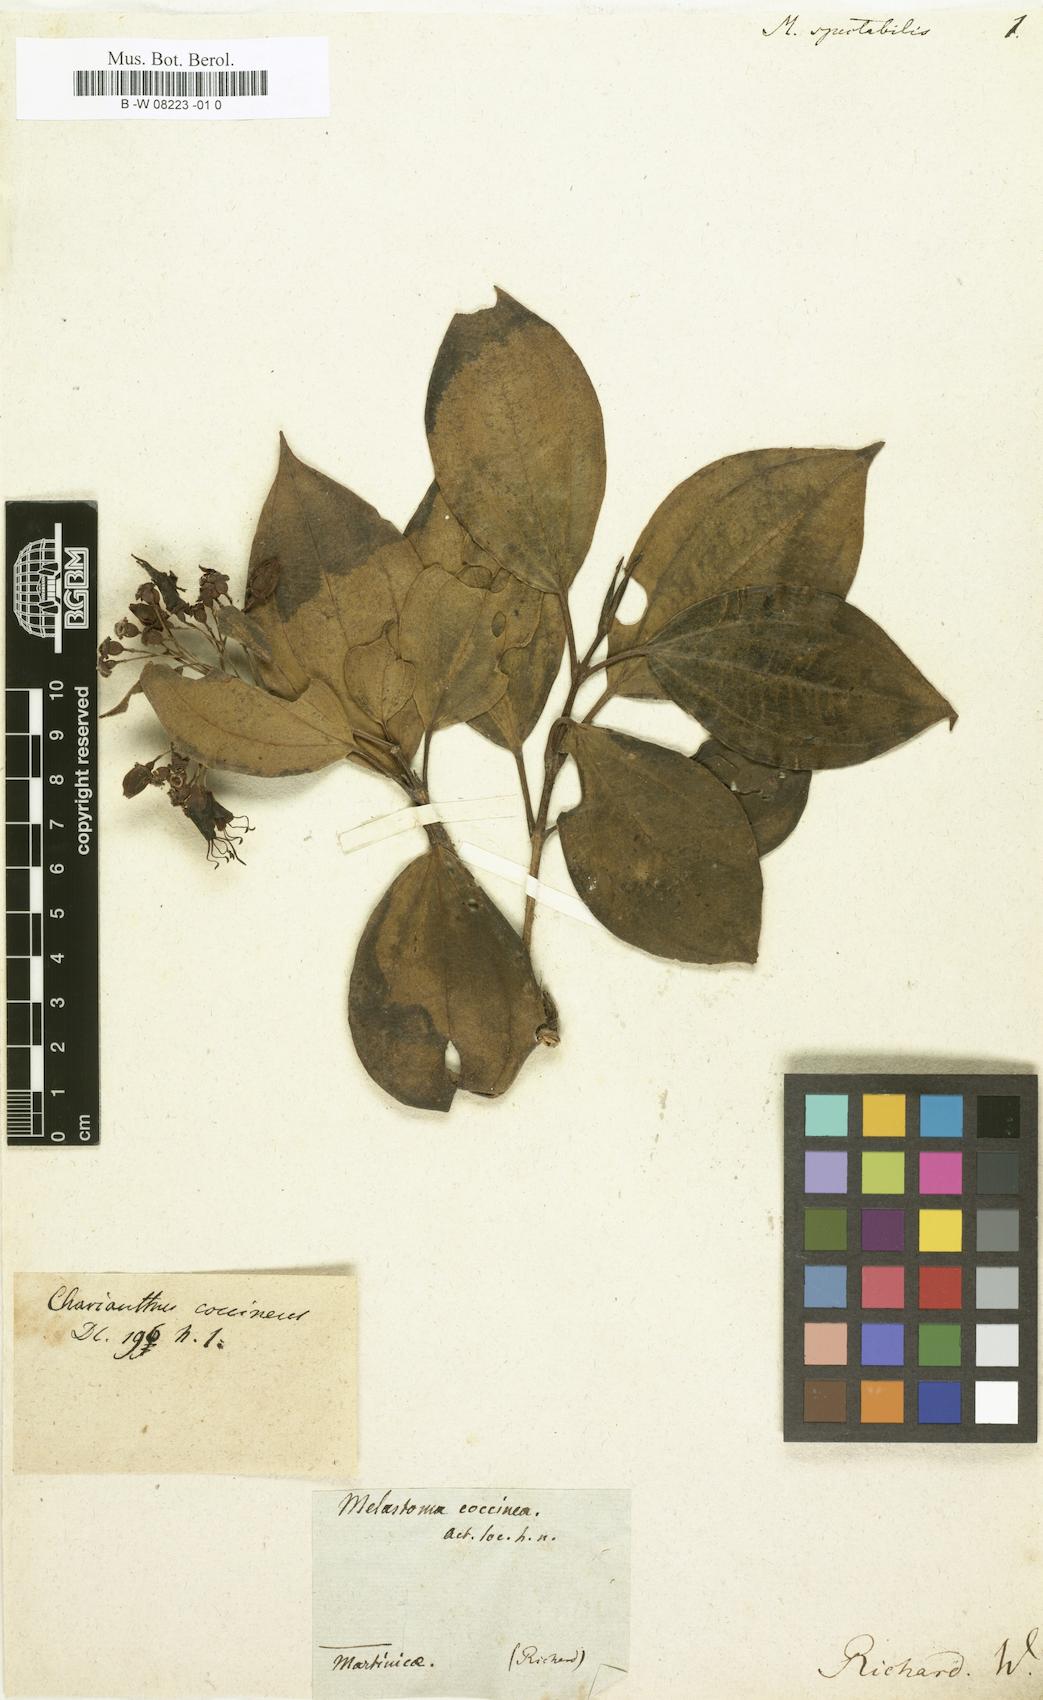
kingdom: Plantae
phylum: Tracheophyta
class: Magnoliopsida
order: Myrtales
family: Melastomataceae
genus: Melastoma
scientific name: Melastoma
